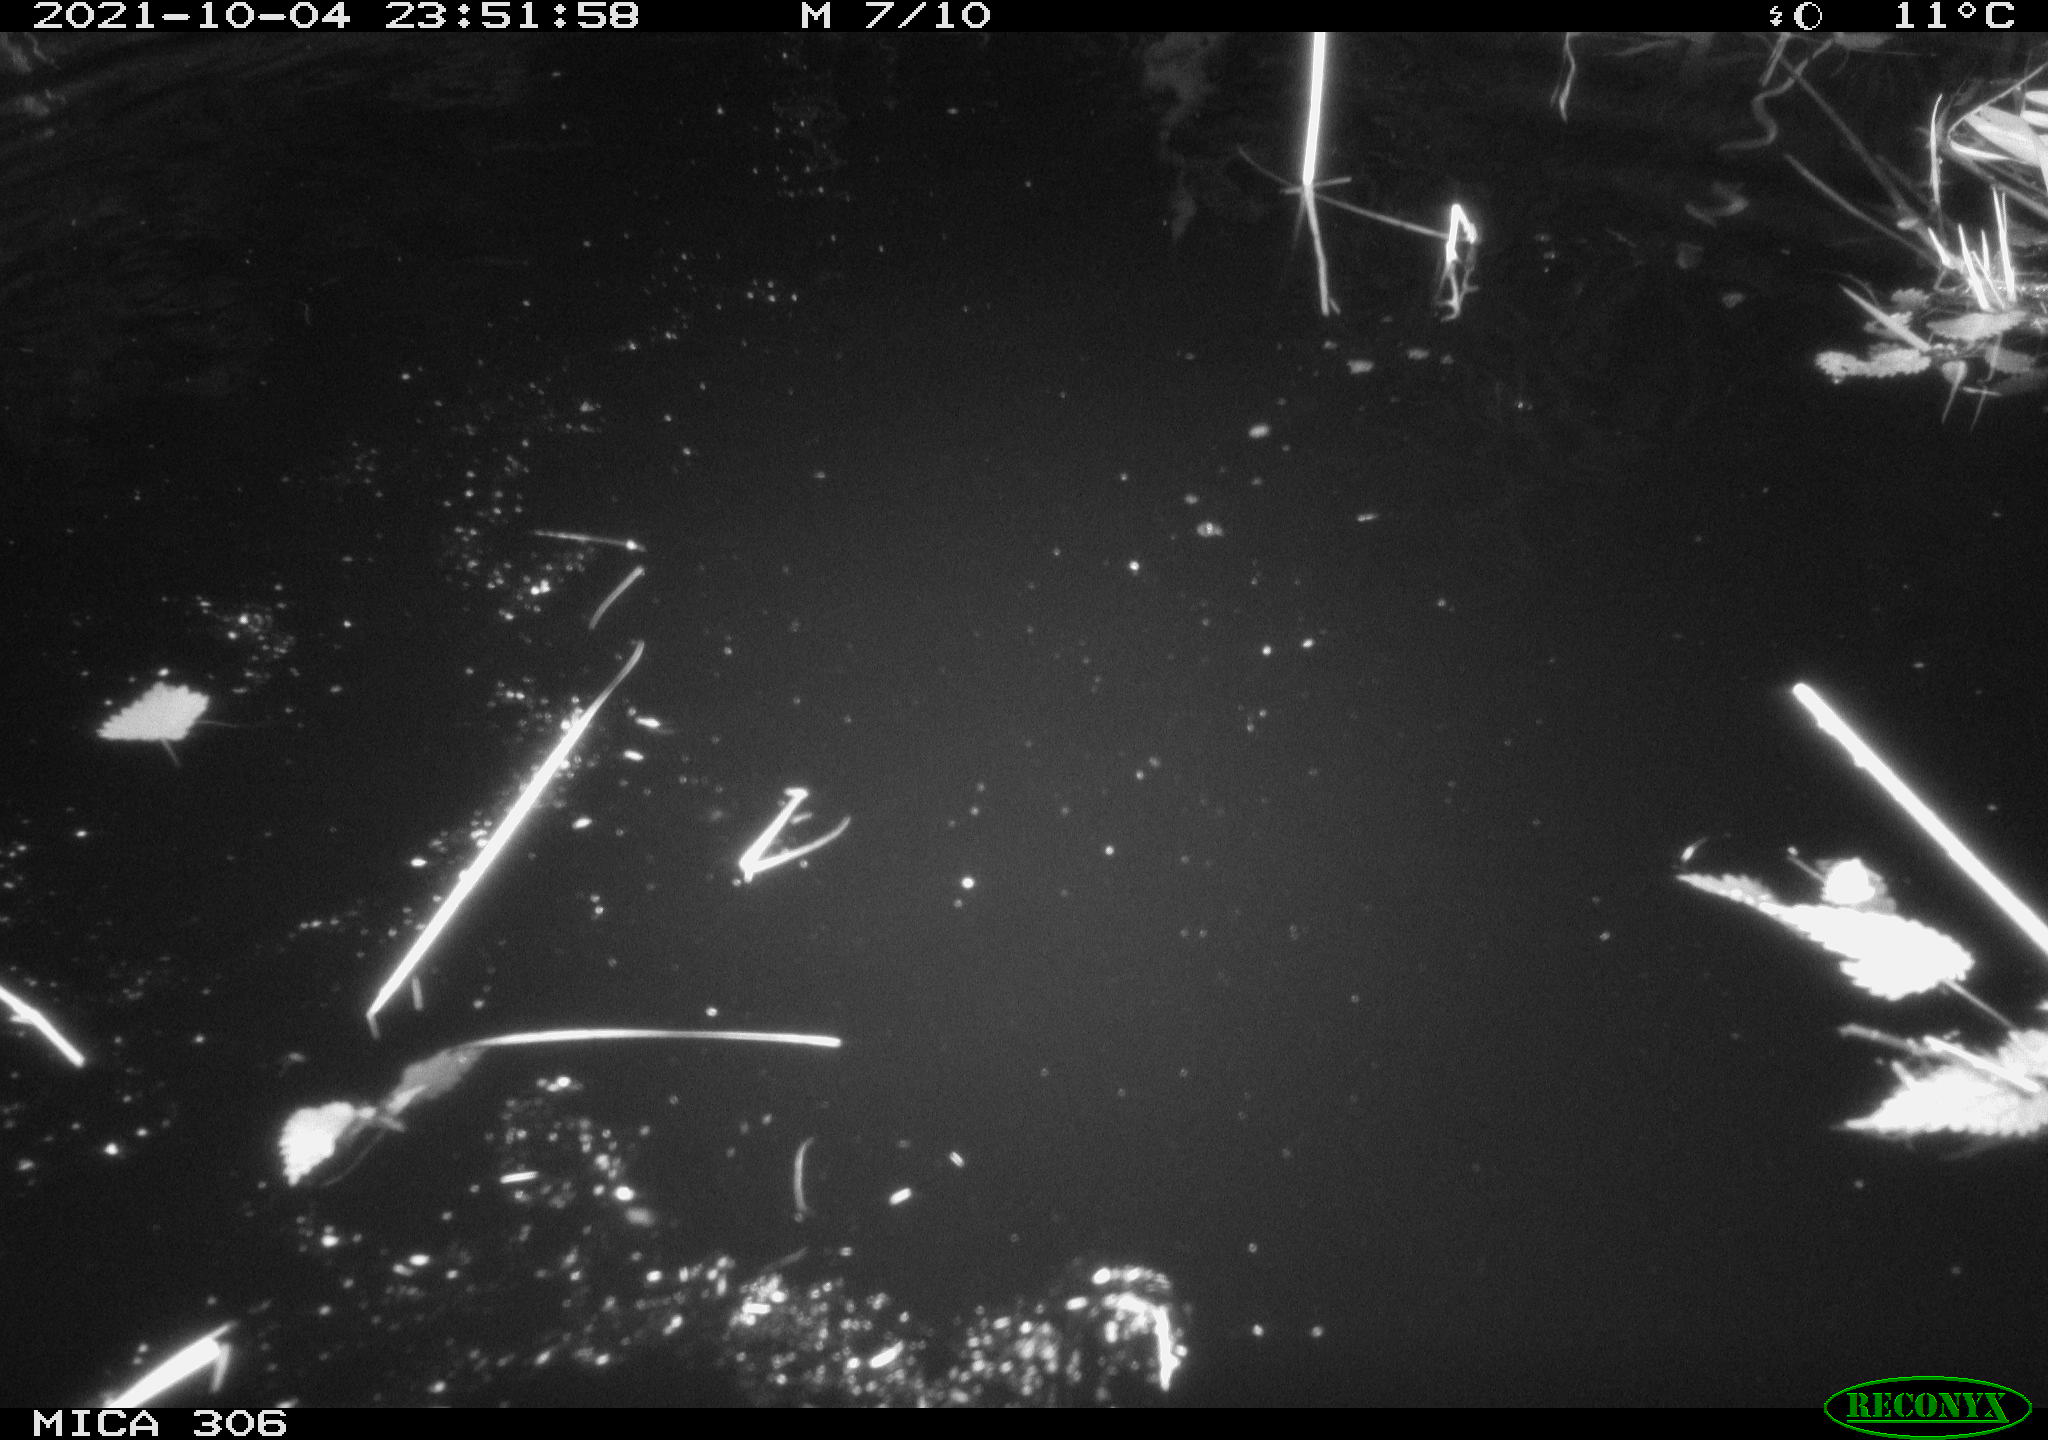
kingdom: Animalia
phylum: Chordata
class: Mammalia
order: Rodentia
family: Cricetidae
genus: Ondatra
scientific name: Ondatra zibethicus
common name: Muskrat
